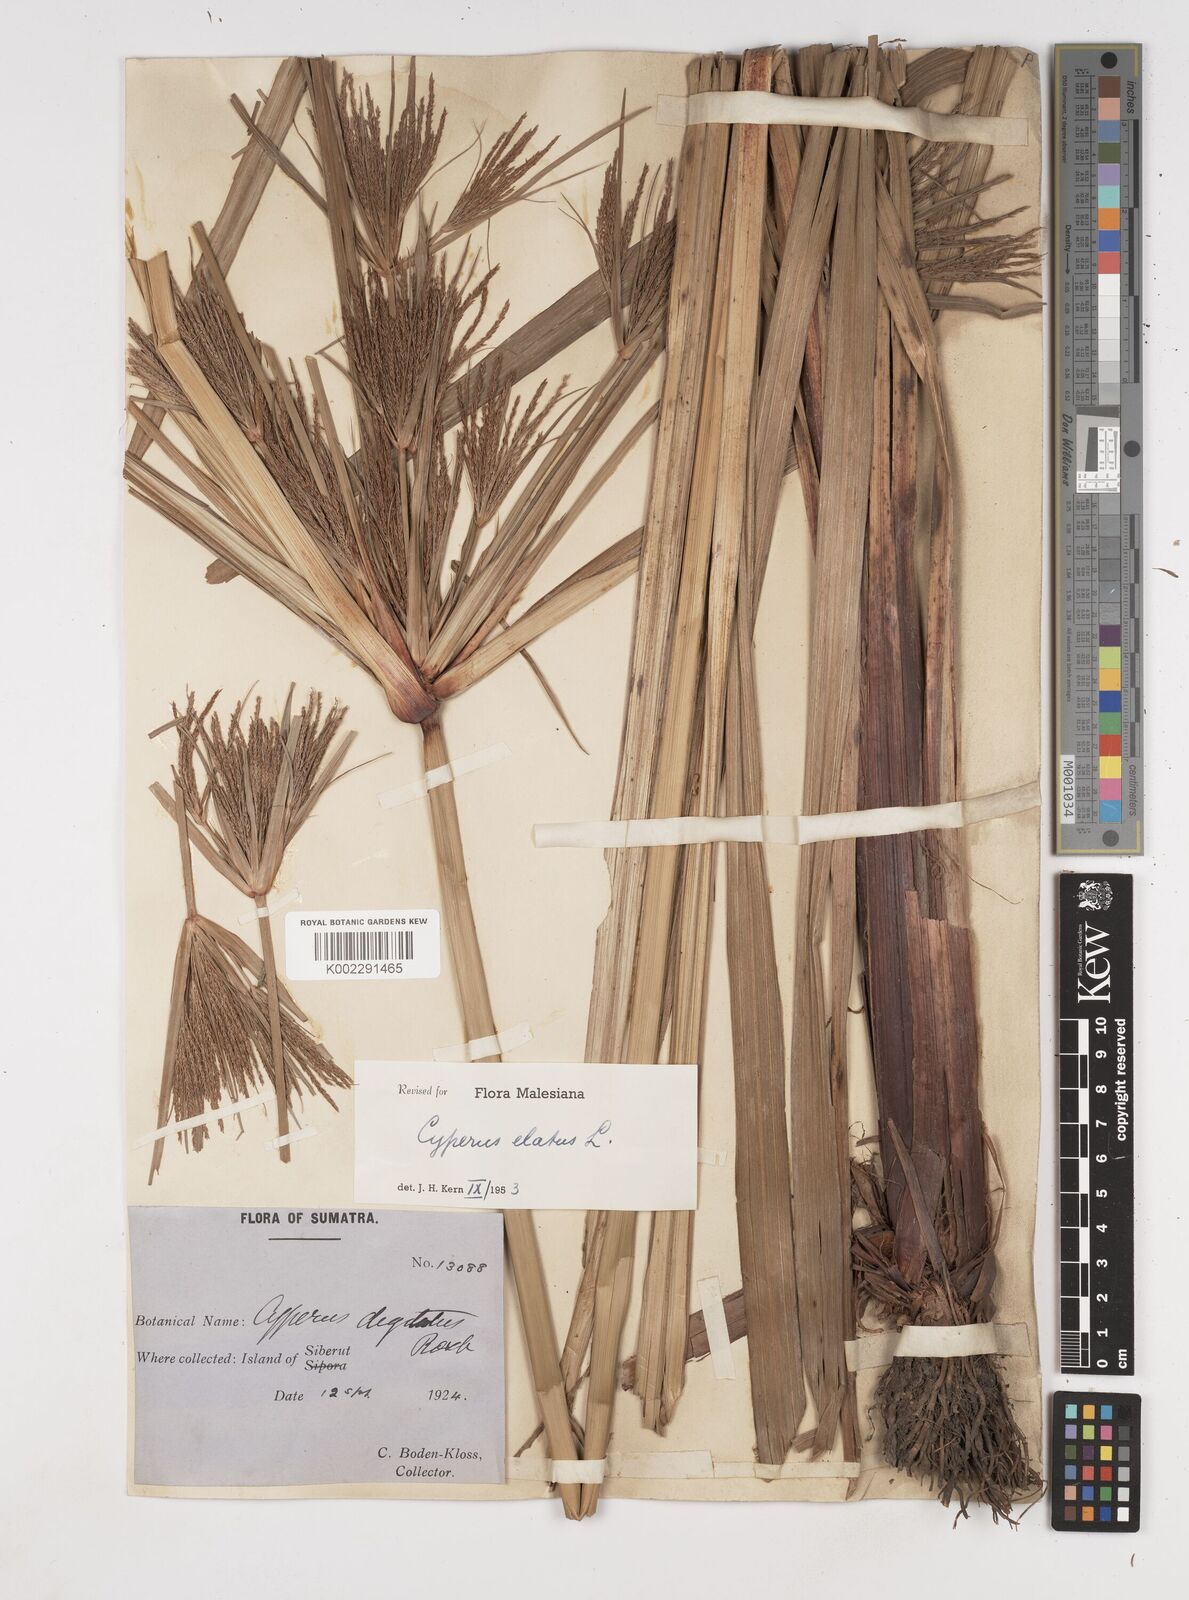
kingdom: Plantae
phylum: Tracheophyta
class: Liliopsida
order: Poales
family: Cyperaceae
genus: Cyperus
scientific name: Cyperus elatus
